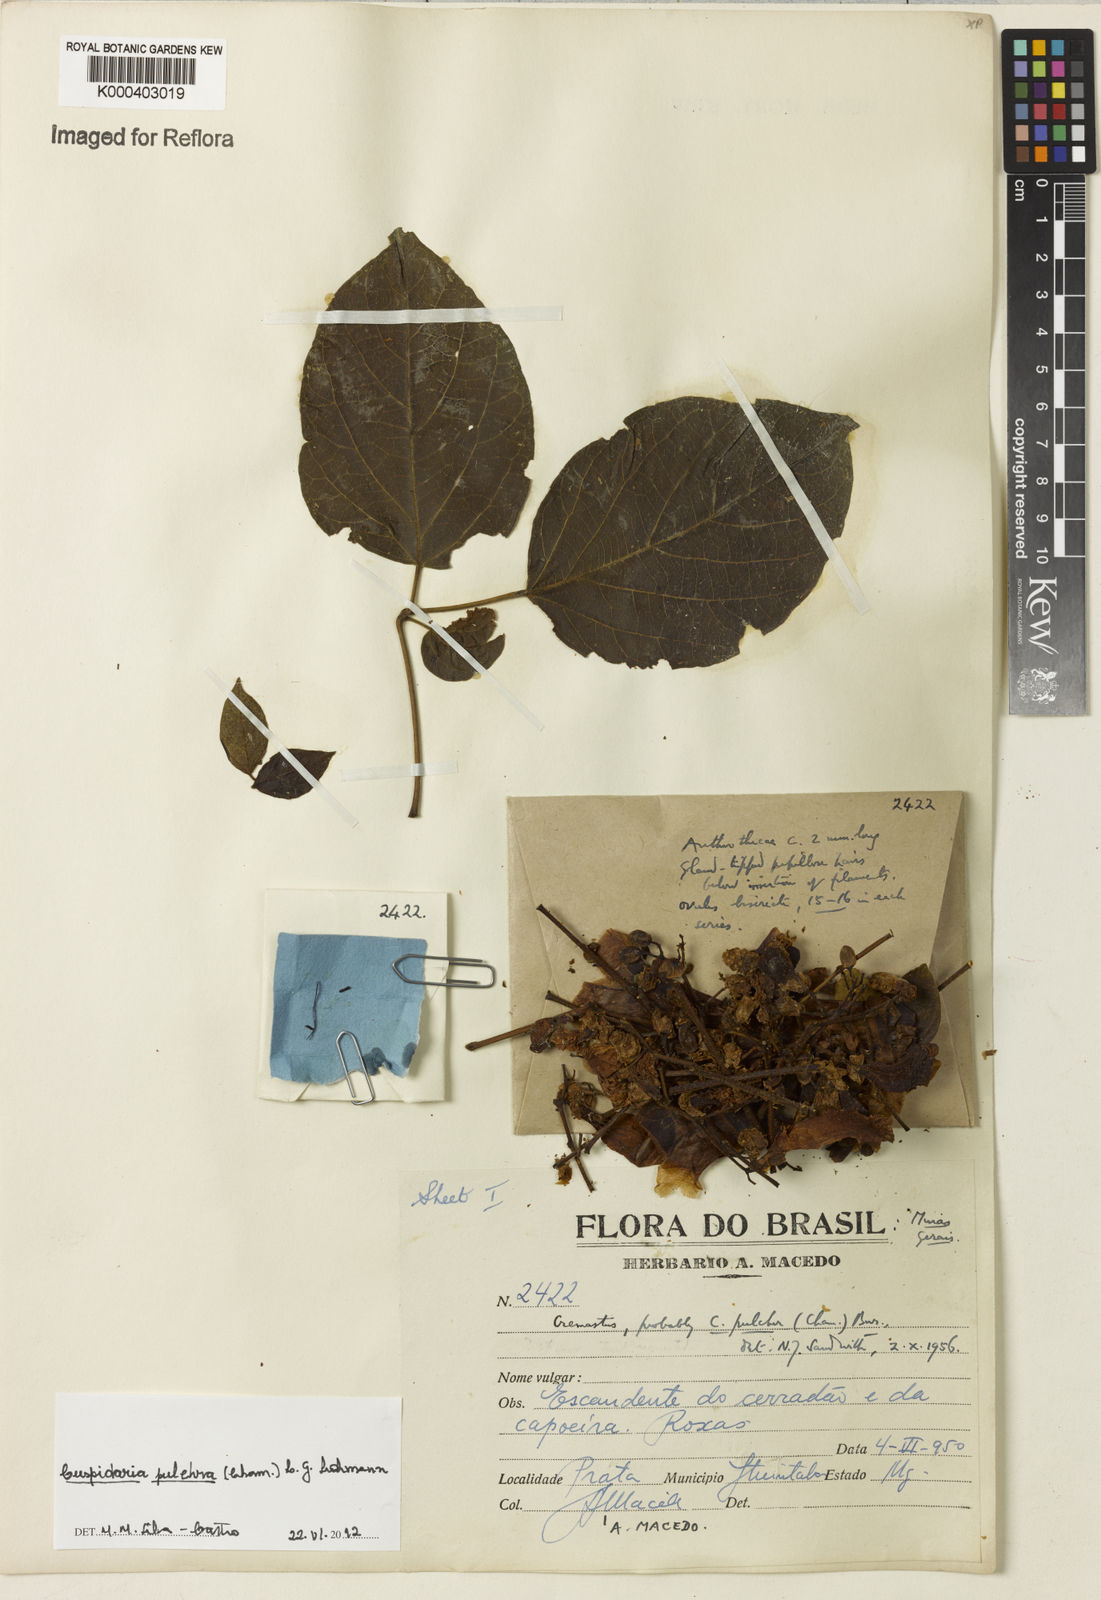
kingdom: Plantae
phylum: Tracheophyta
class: Magnoliopsida
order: Lamiales
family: Bignoniaceae
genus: Cuspidaria
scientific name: Cuspidaria pulchra
